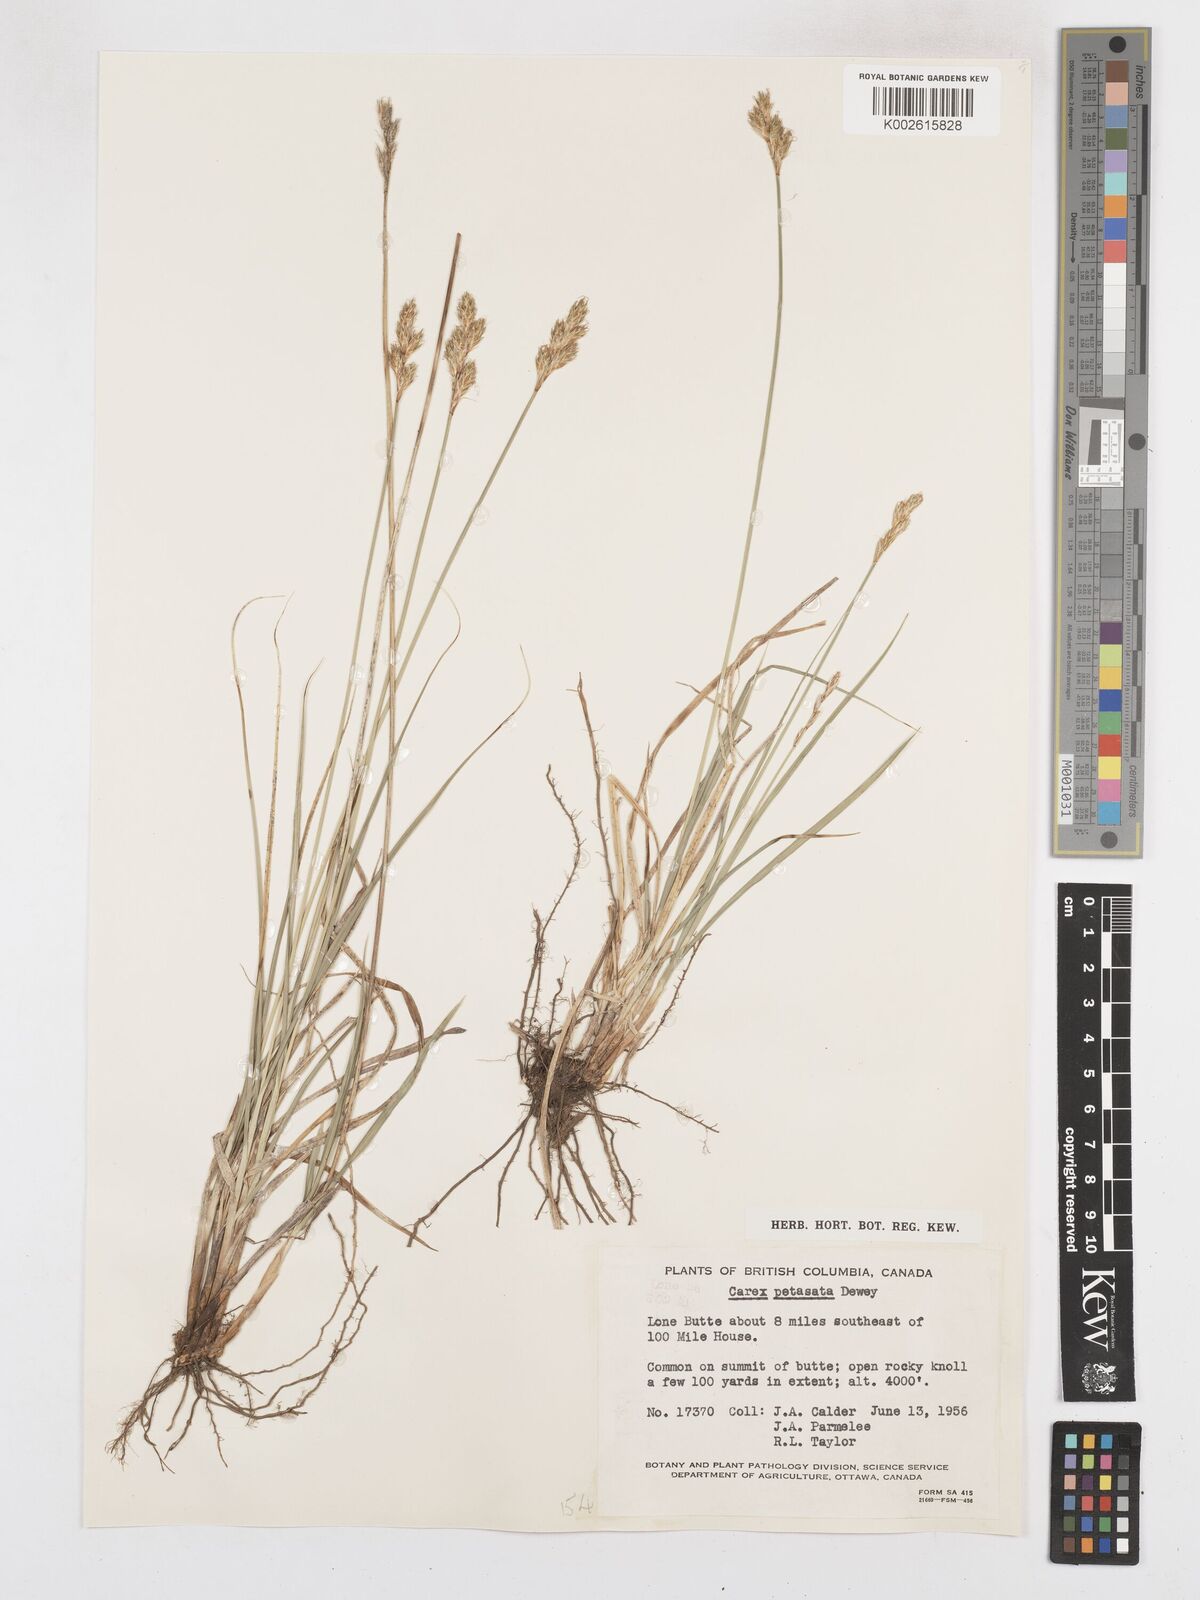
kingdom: Plantae
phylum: Tracheophyta
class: Liliopsida
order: Poales
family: Cyperaceae
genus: Carex
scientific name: Carex petasata
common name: Liddon's sedge
